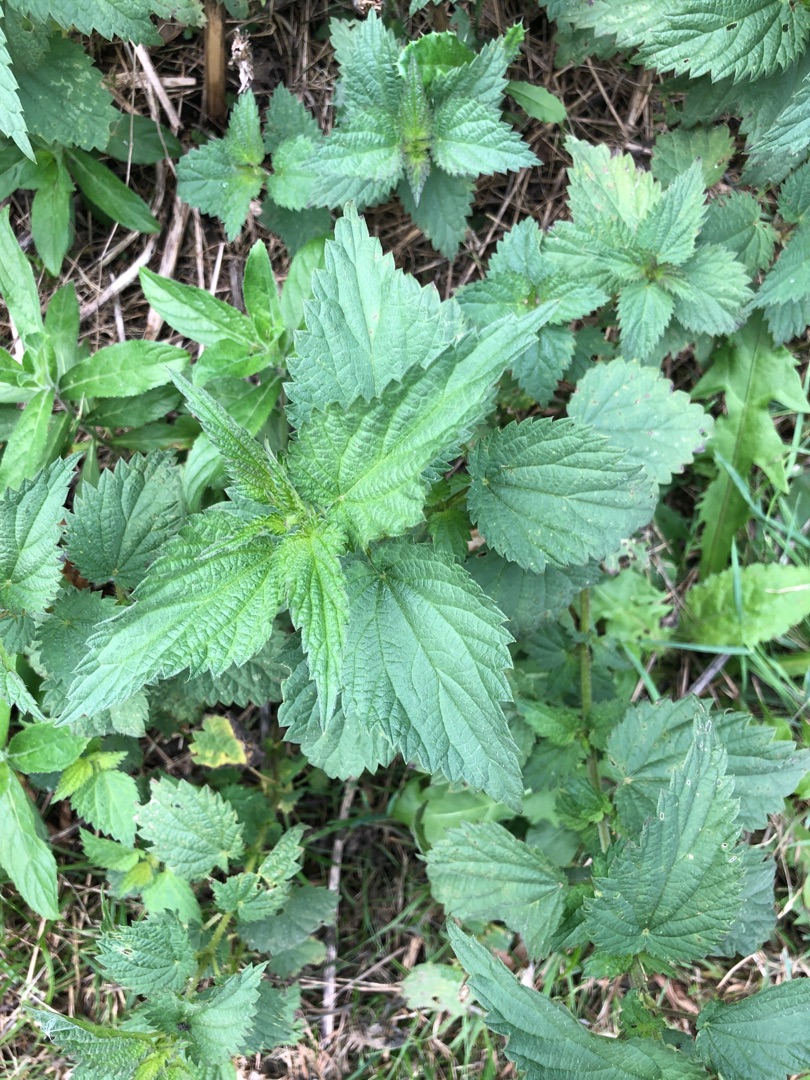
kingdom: Plantae
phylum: Tracheophyta
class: Magnoliopsida
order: Rosales
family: Urticaceae
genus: Urtica
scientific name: Urtica dioica
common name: Stor nælde
